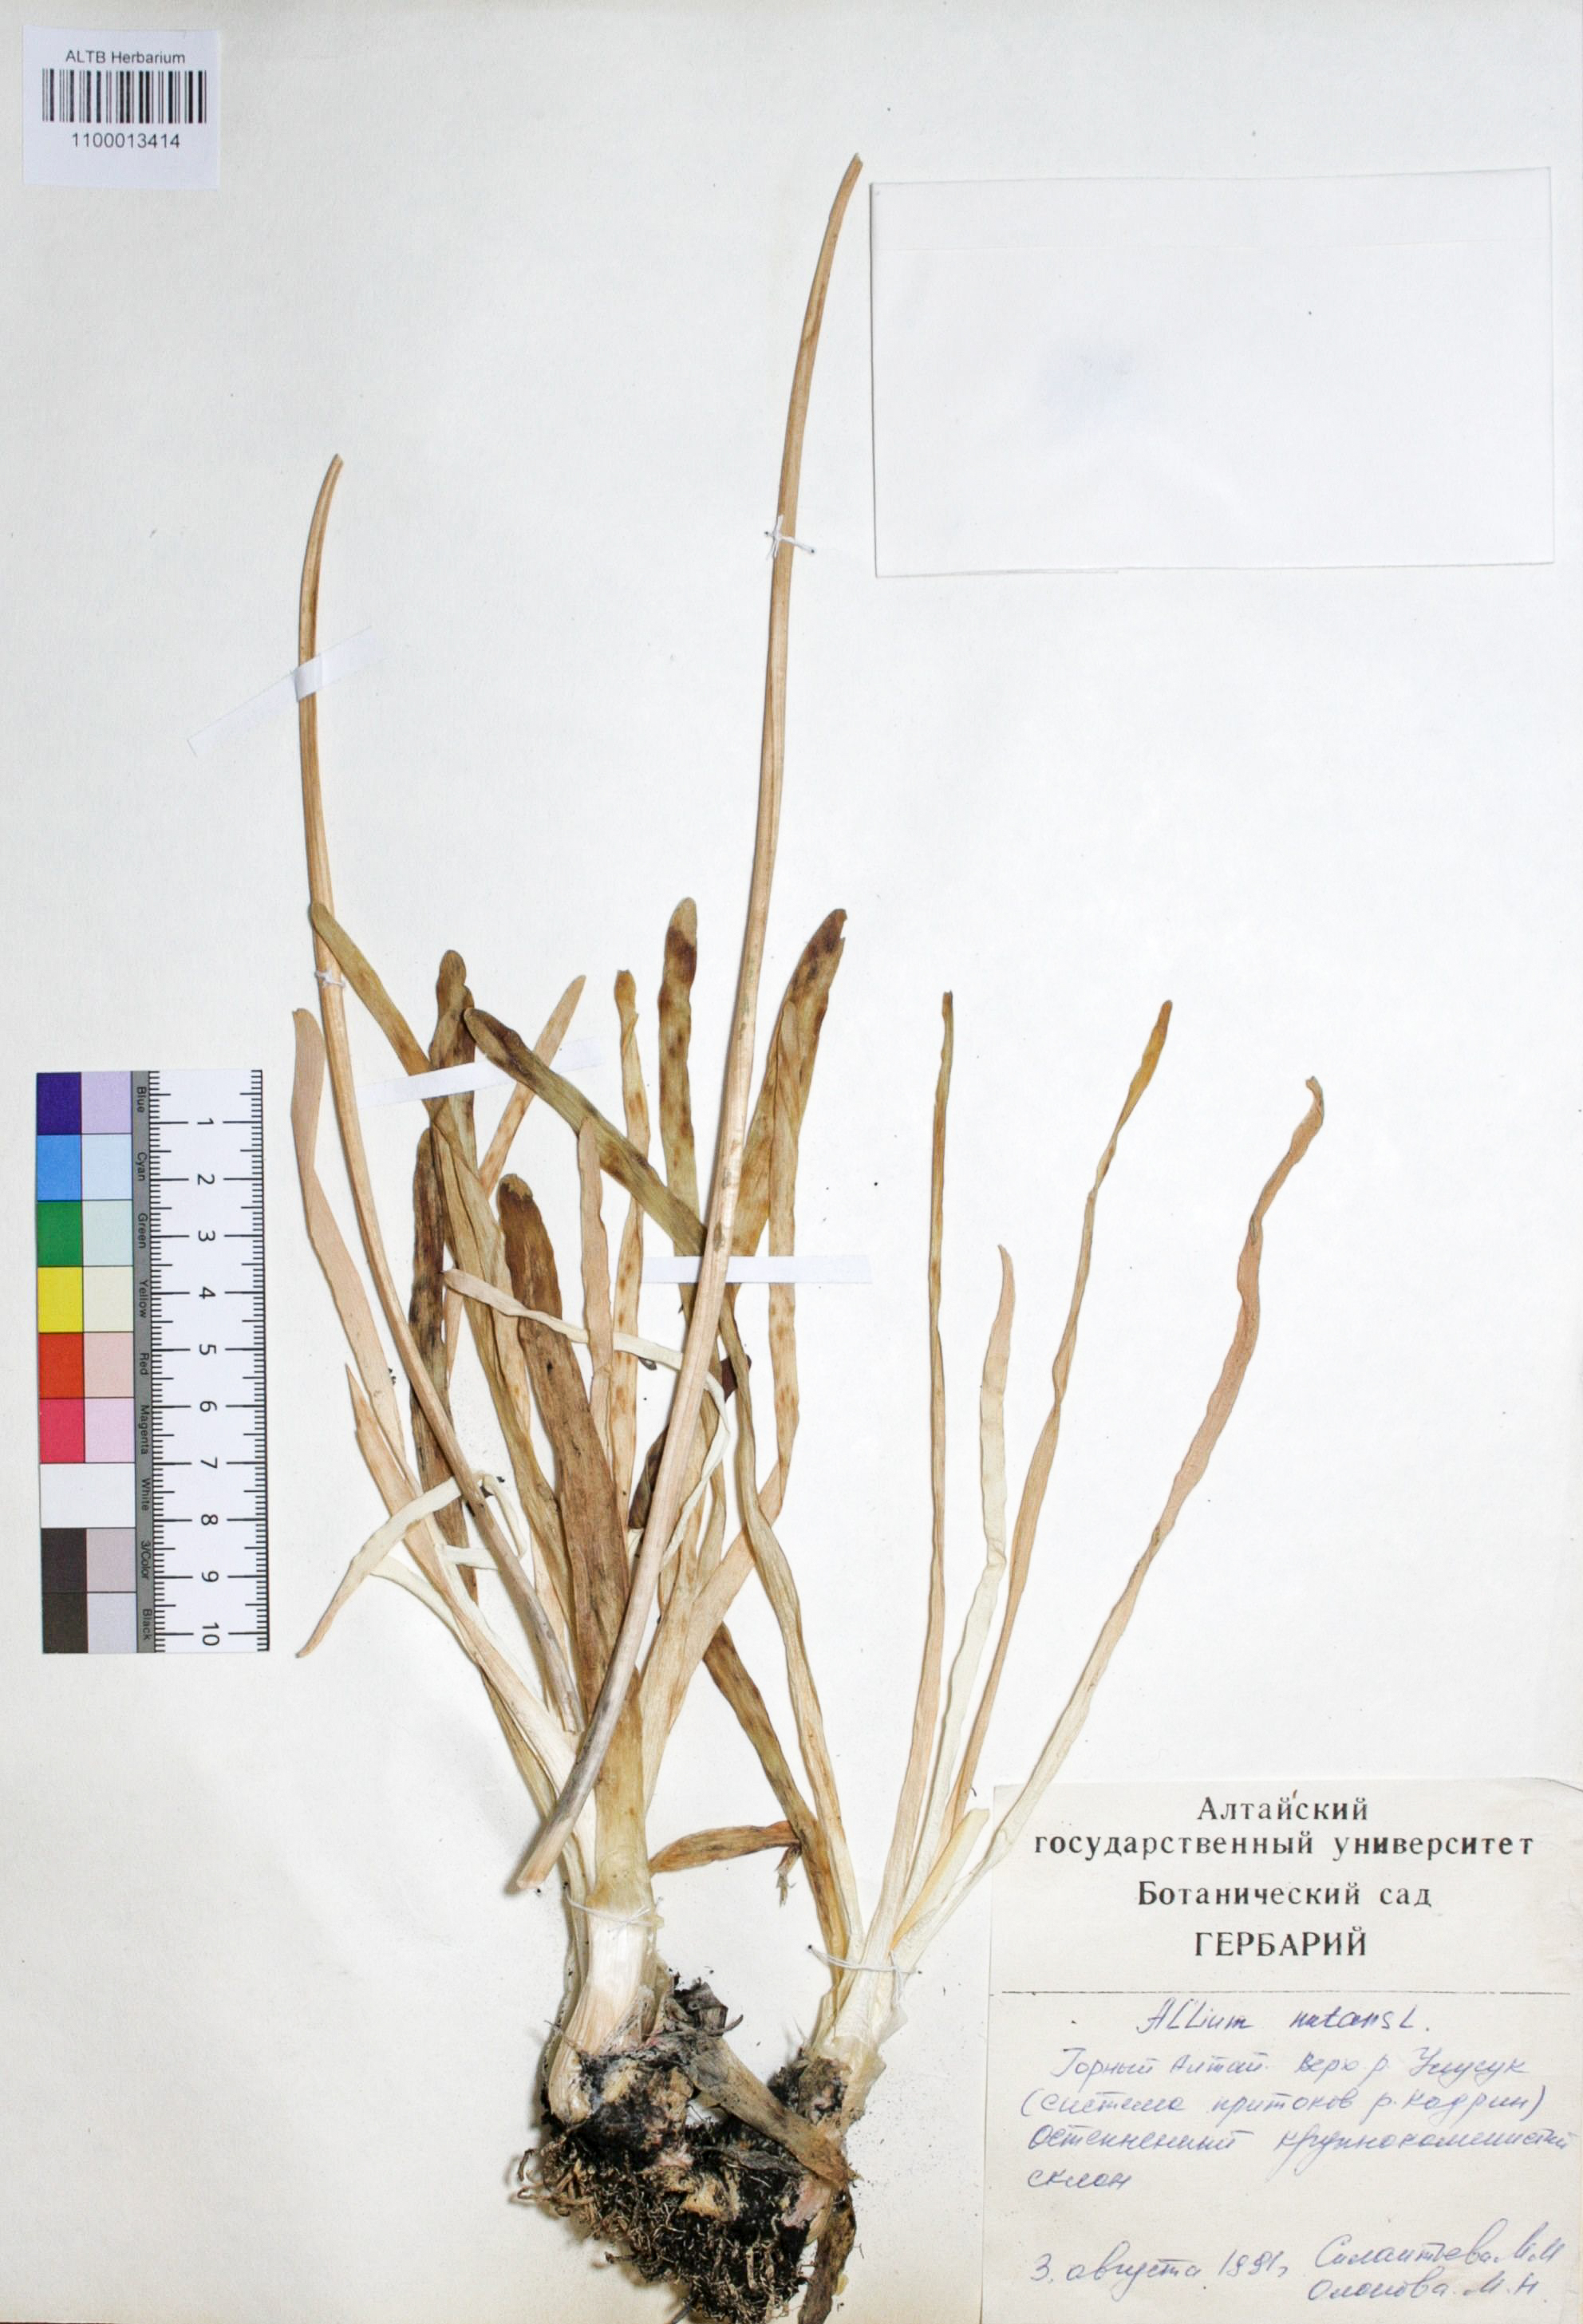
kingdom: Plantae
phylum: Tracheophyta
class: Liliopsida
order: Asparagales
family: Amaryllidaceae
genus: Allium
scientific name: Allium nutans
